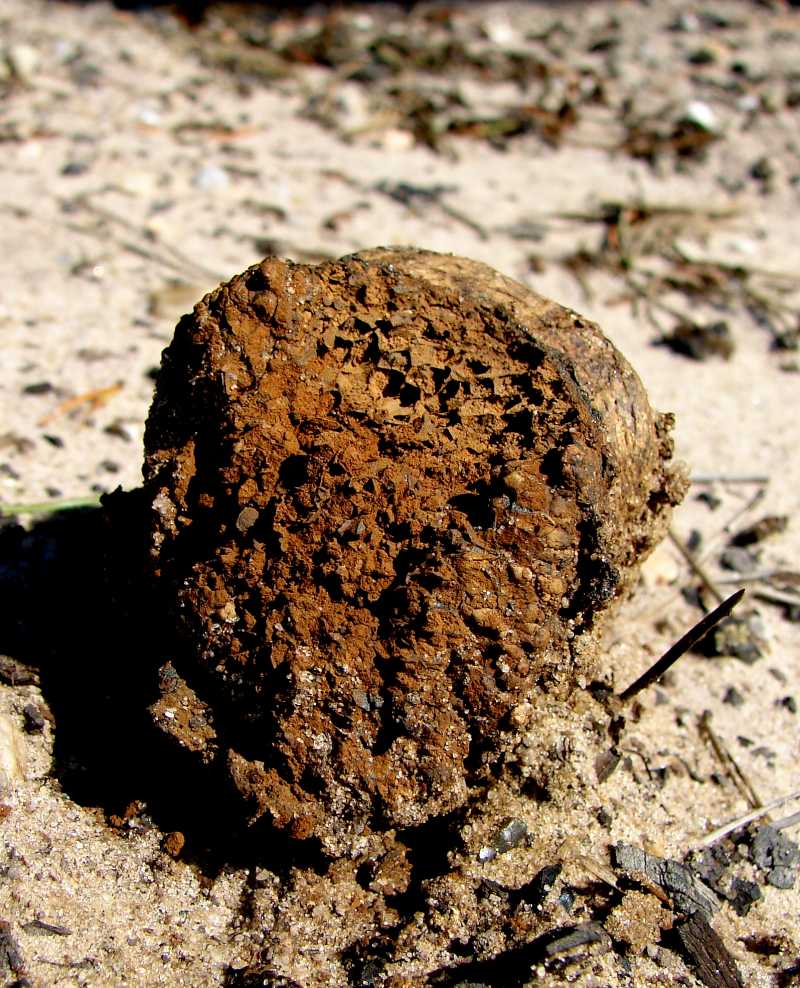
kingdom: Fungi
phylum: Basidiomycota
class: Agaricomycetes
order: Boletales
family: Sclerodermataceae
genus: Pisolithus
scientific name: Pisolithus capsulifer
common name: farvebold
